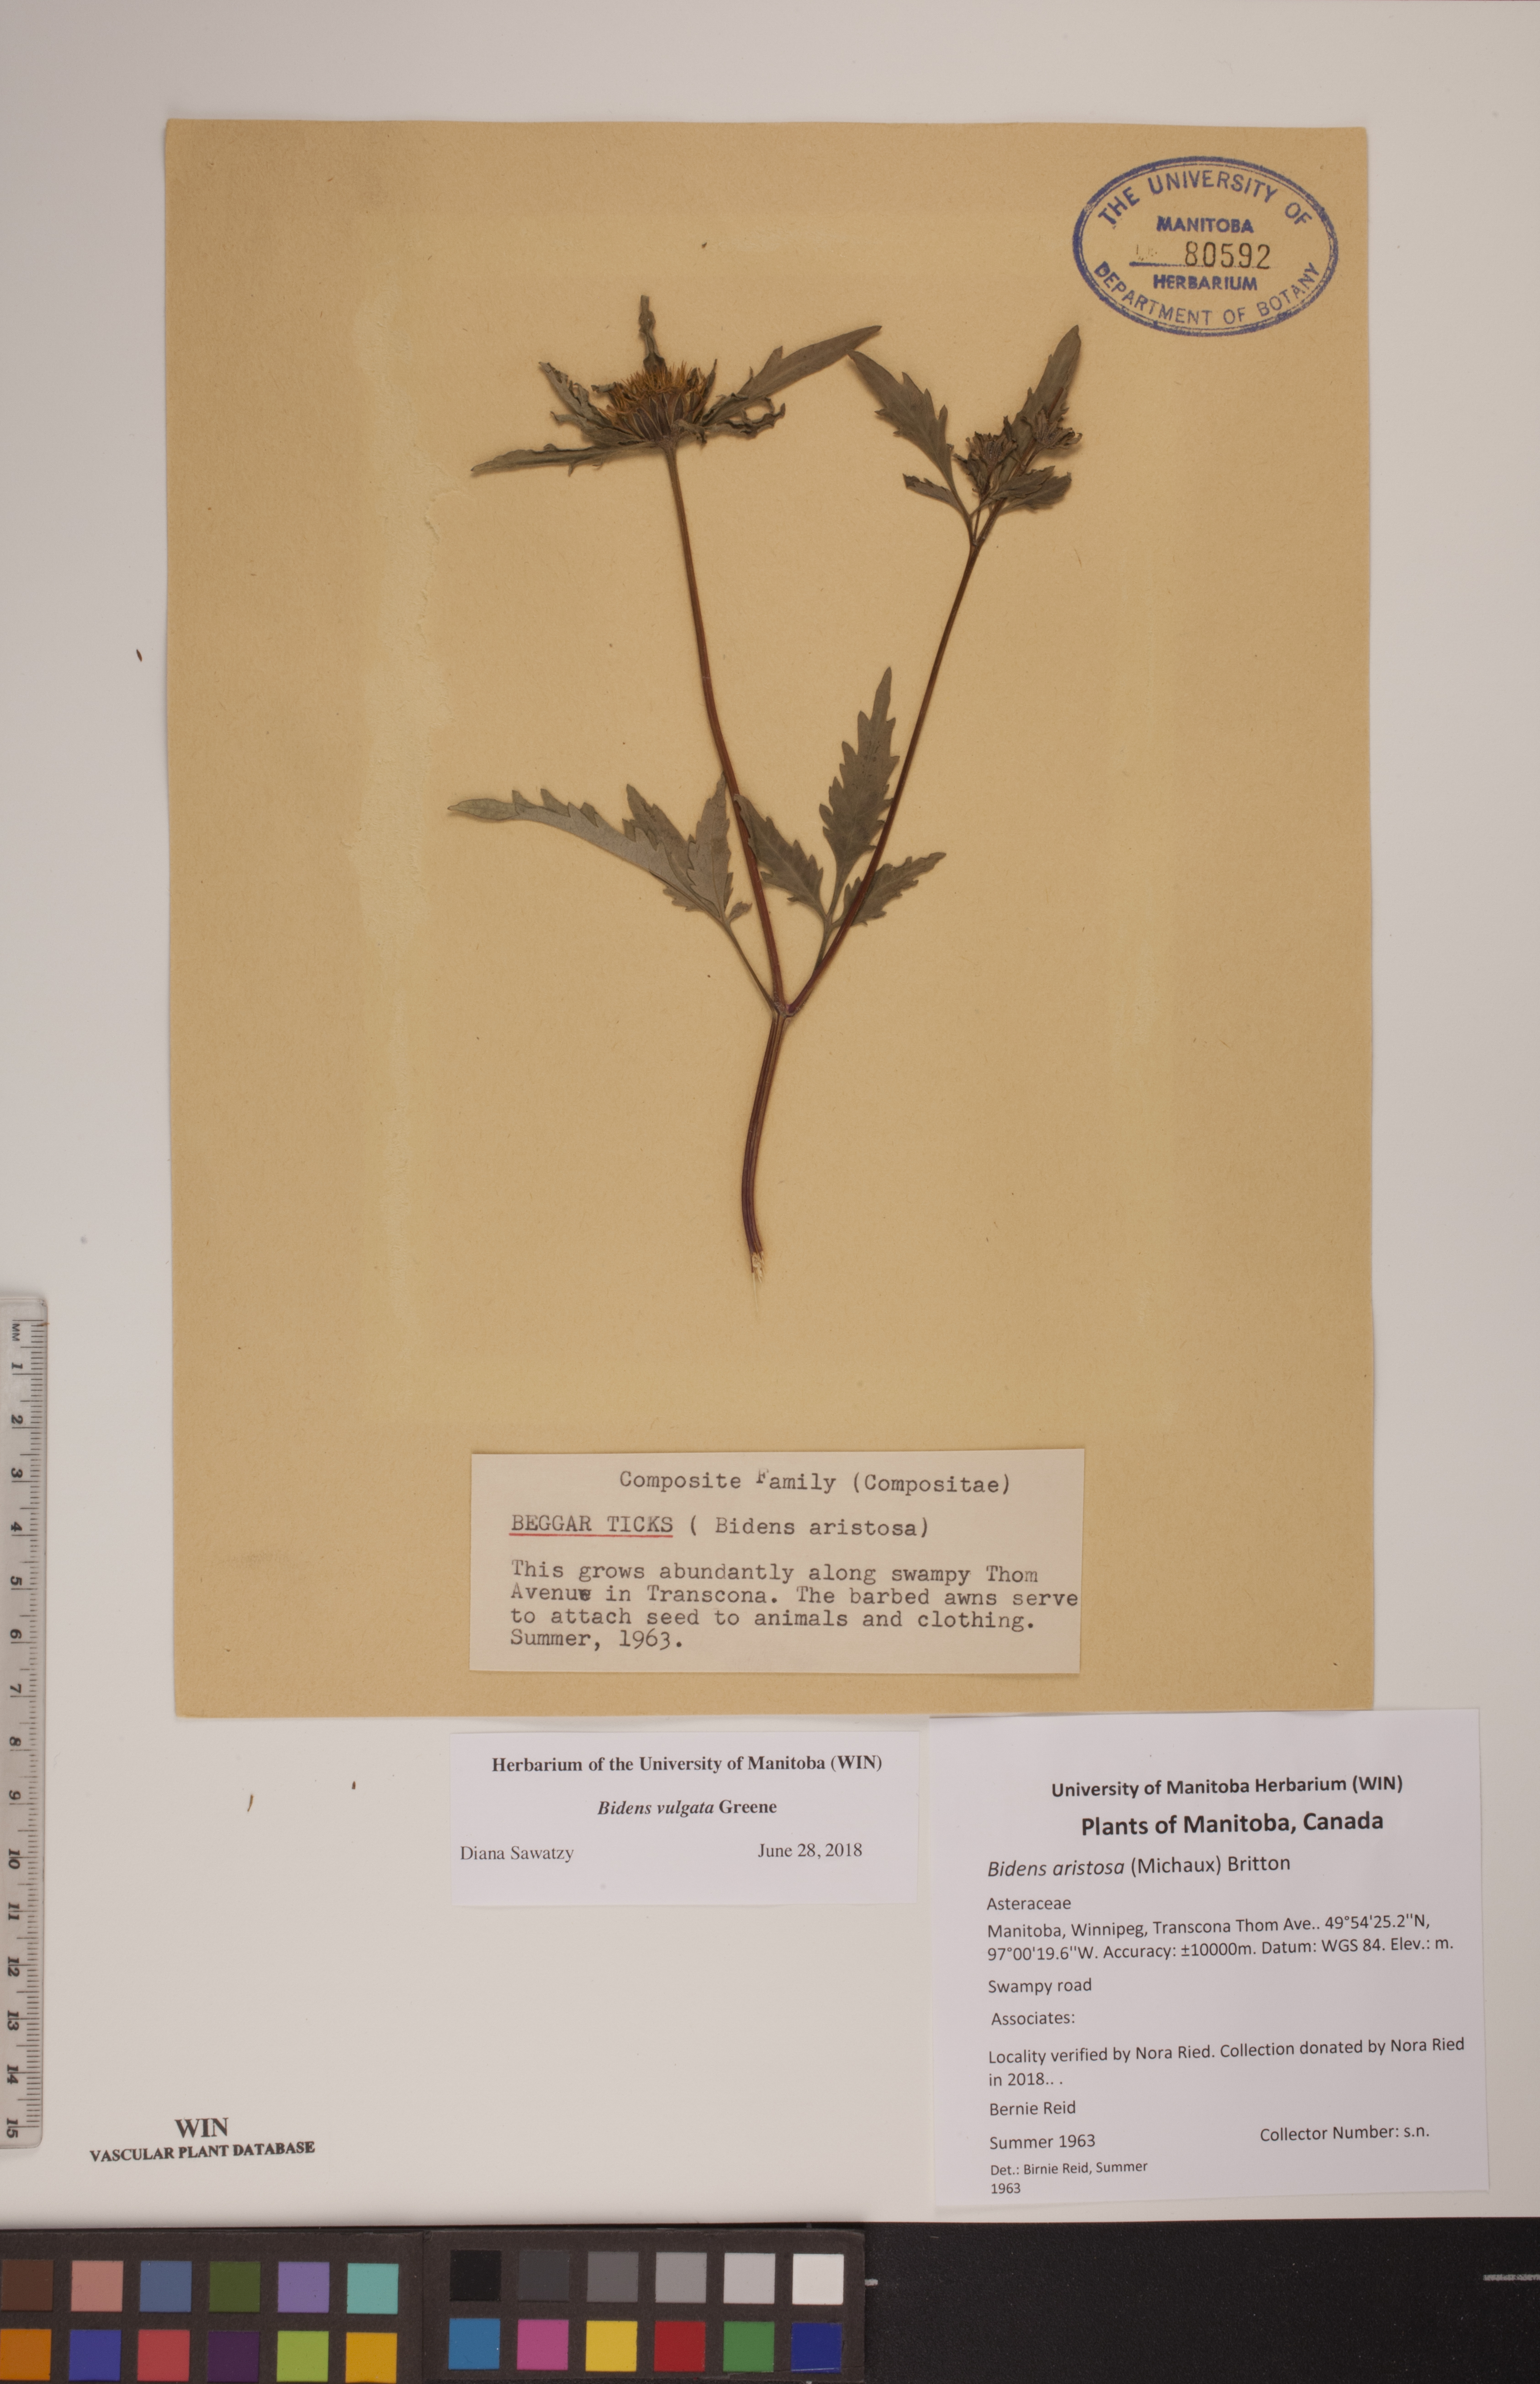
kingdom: Plantae
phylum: Tracheophyta
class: Magnoliopsida
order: Asterales
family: Asteraceae
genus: Bidens
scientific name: Bidens vulgata
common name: Tall beggarticks
